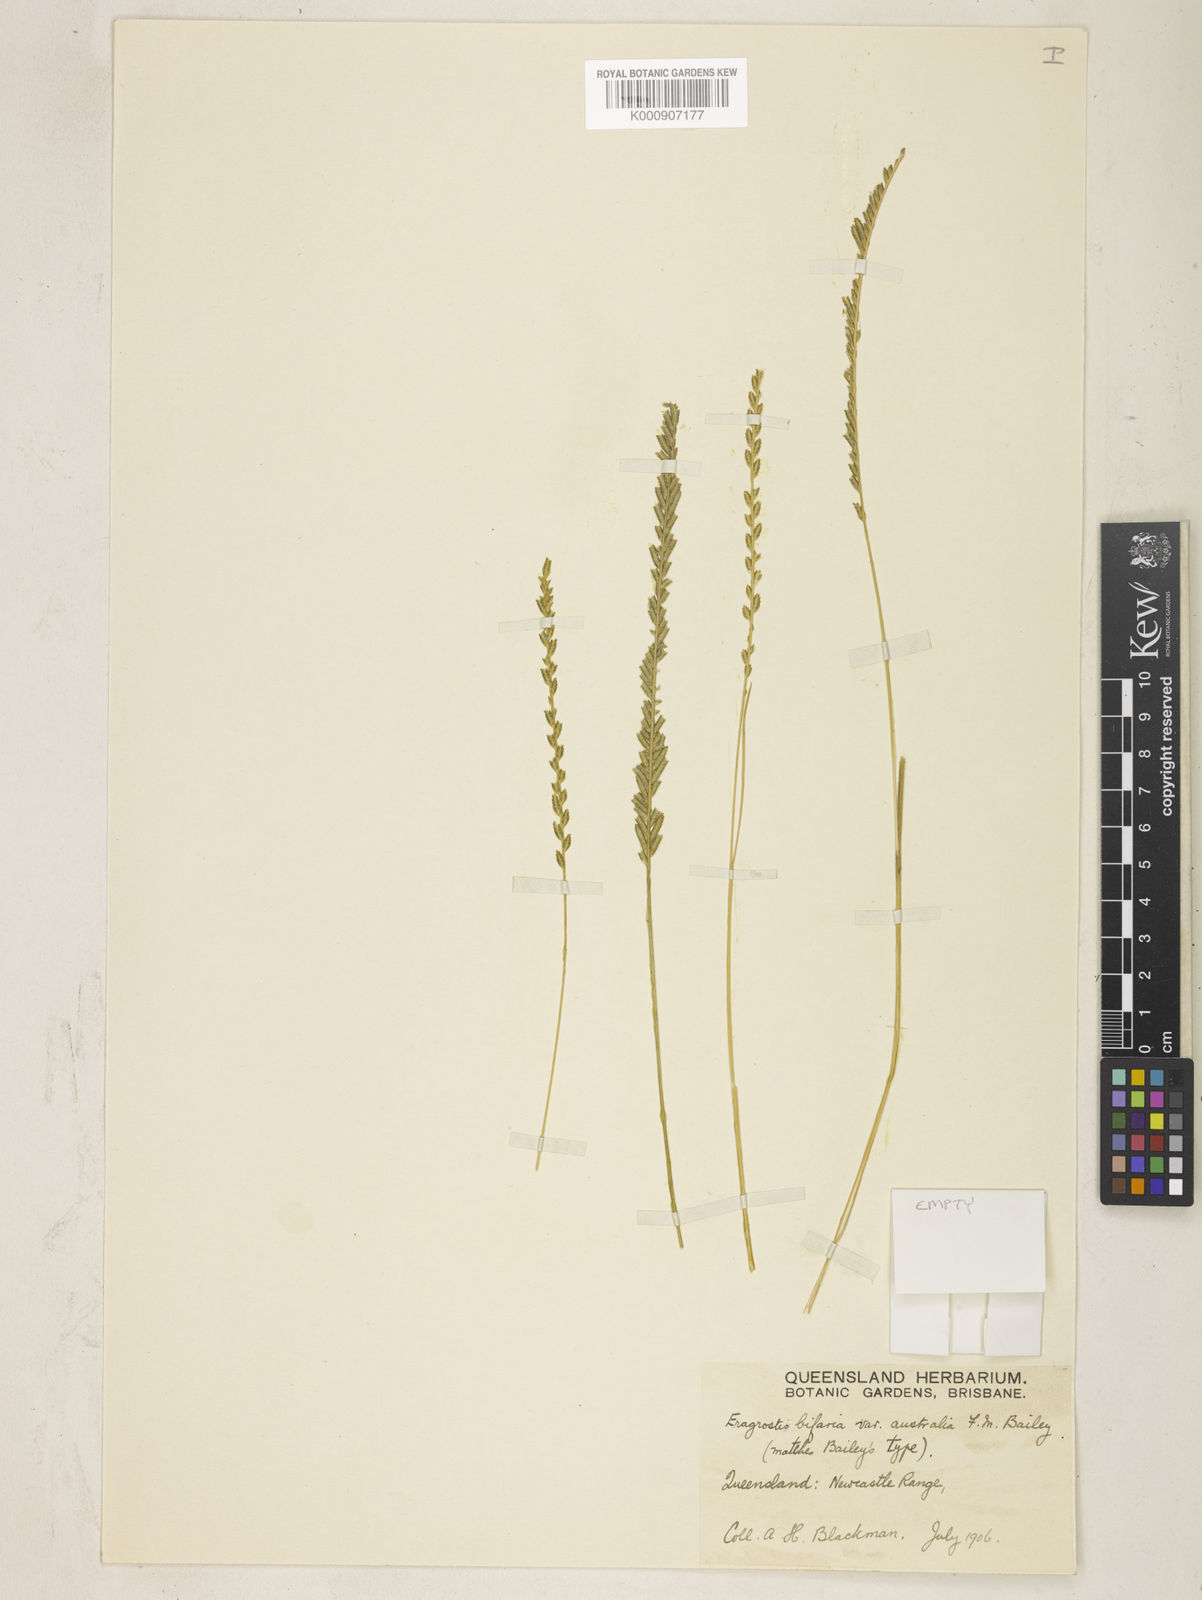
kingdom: Plantae
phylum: Tracheophyta
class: Liliopsida
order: Poales
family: Poaceae
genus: Eragrostiella
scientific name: Eragrostiella bifaria
